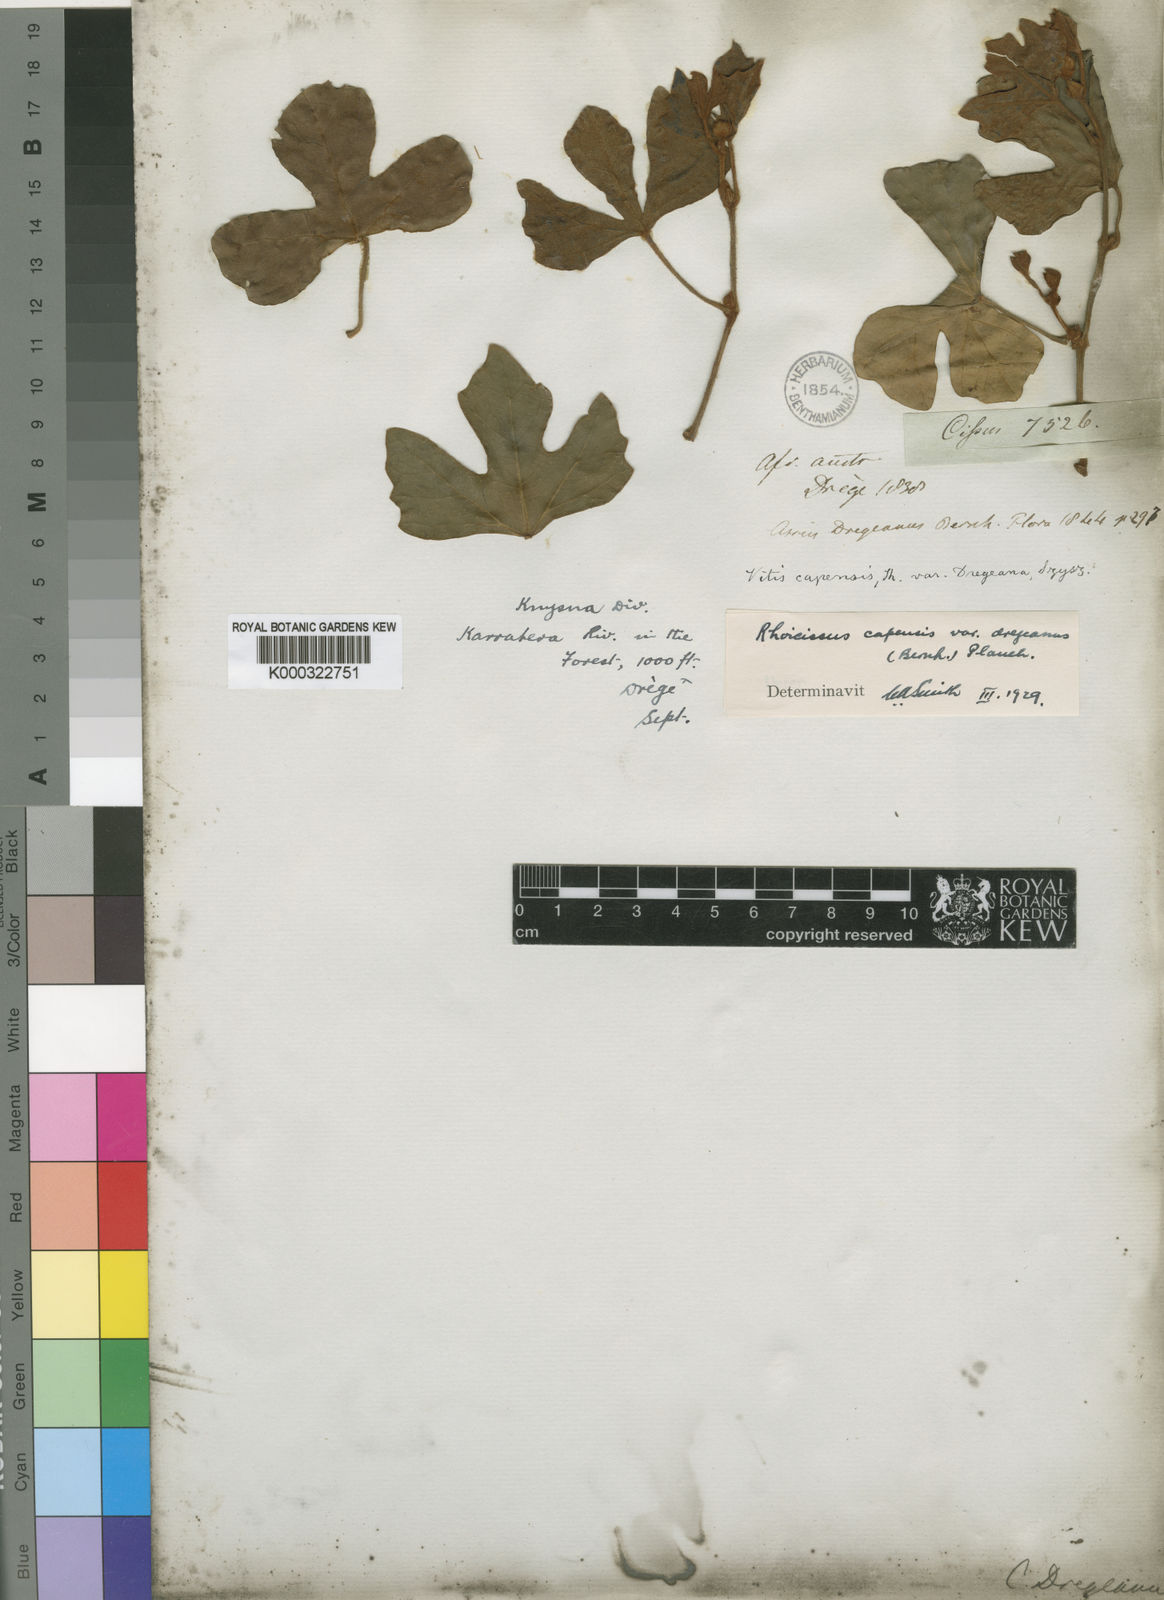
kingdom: Plantae
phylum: Tracheophyta
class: Magnoliopsida
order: Vitales
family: Vitaceae
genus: Rhoicissus
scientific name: Rhoicissus tomentosa
